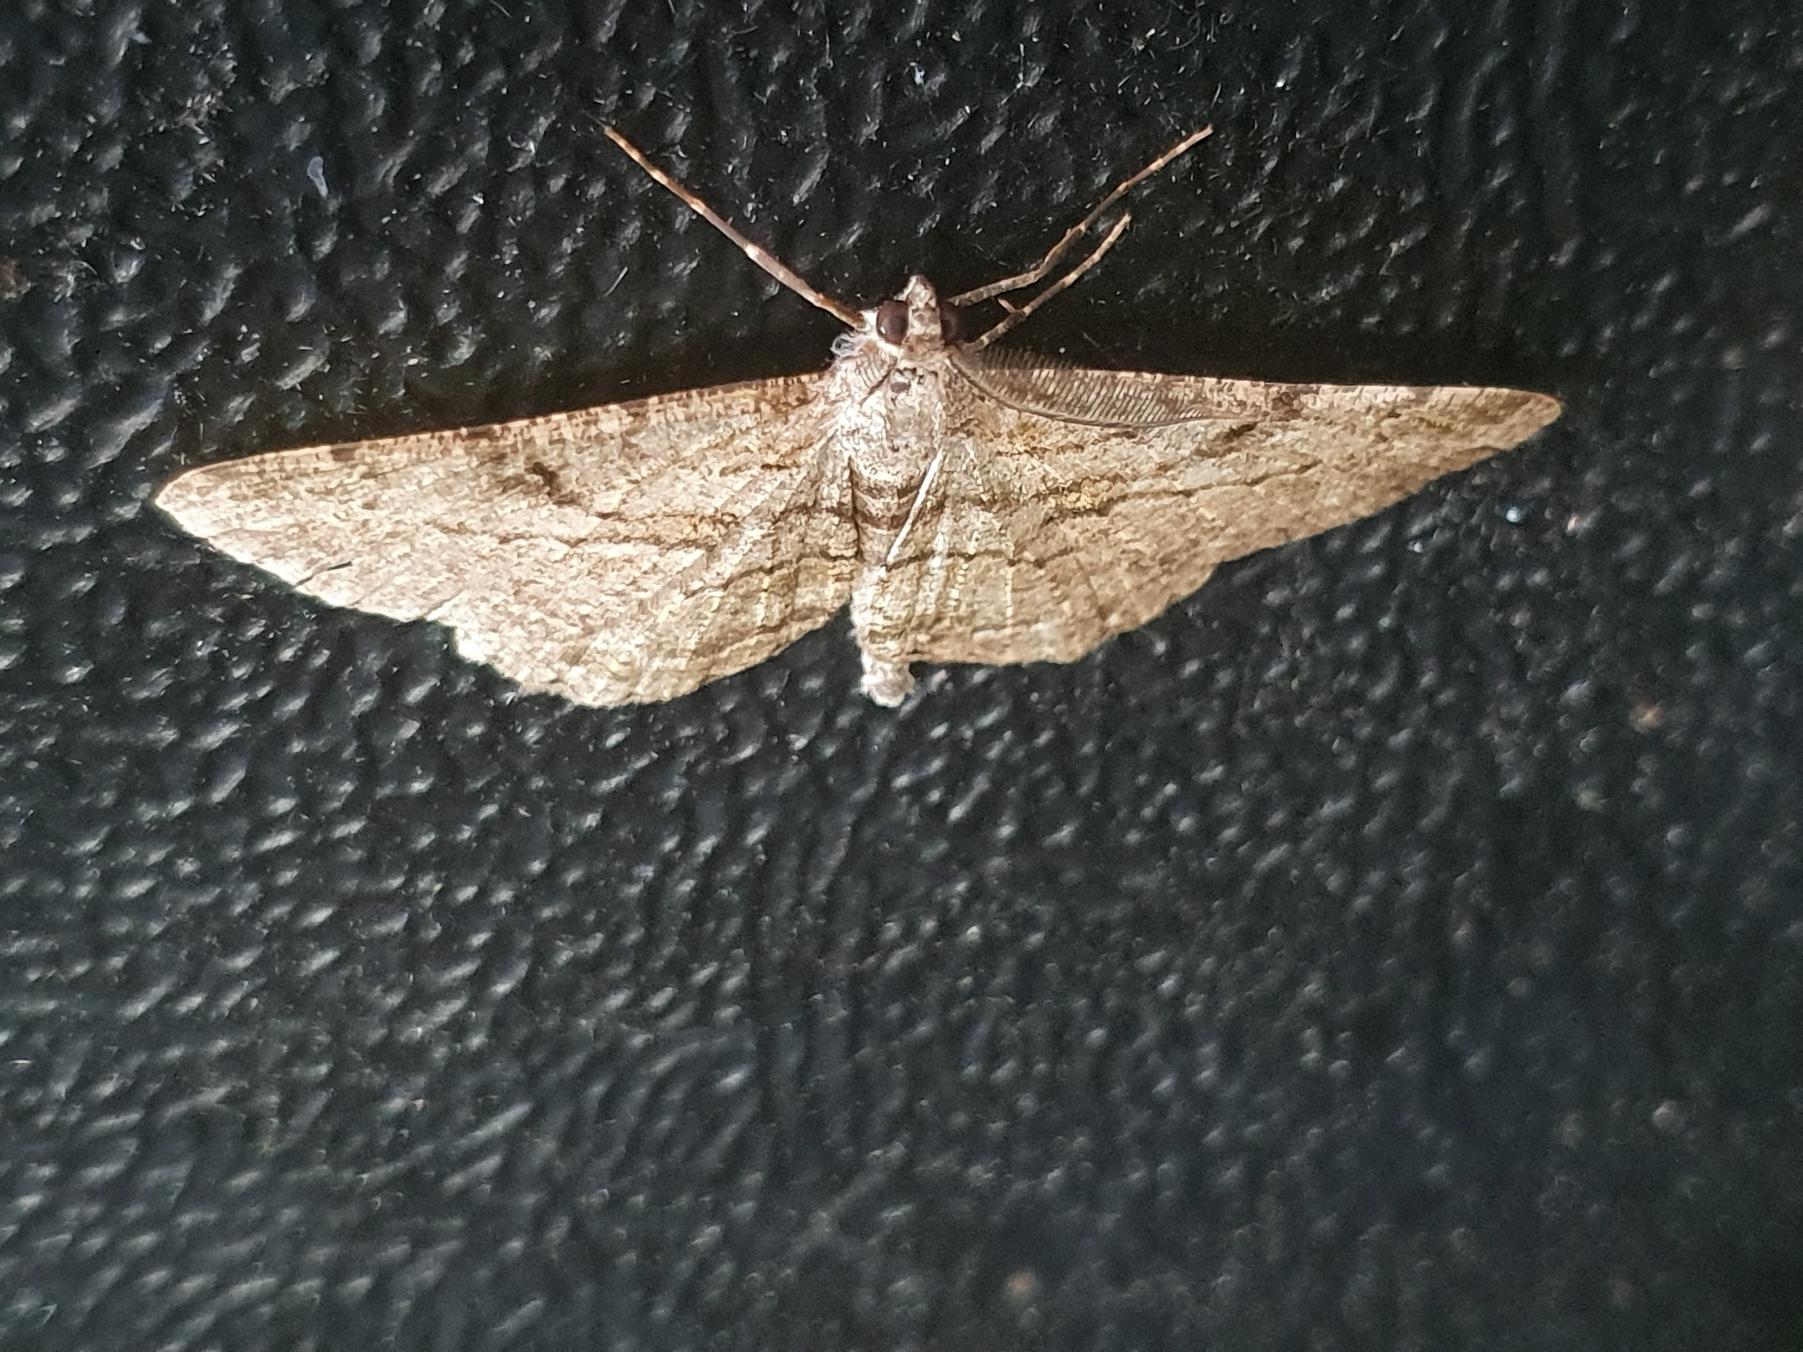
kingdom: Animalia
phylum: Arthropoda
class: Insecta
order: Lepidoptera
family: Geometridae
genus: Peribatodes
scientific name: Peribatodes rhomboidaria
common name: Frugttræ-barkmåler
